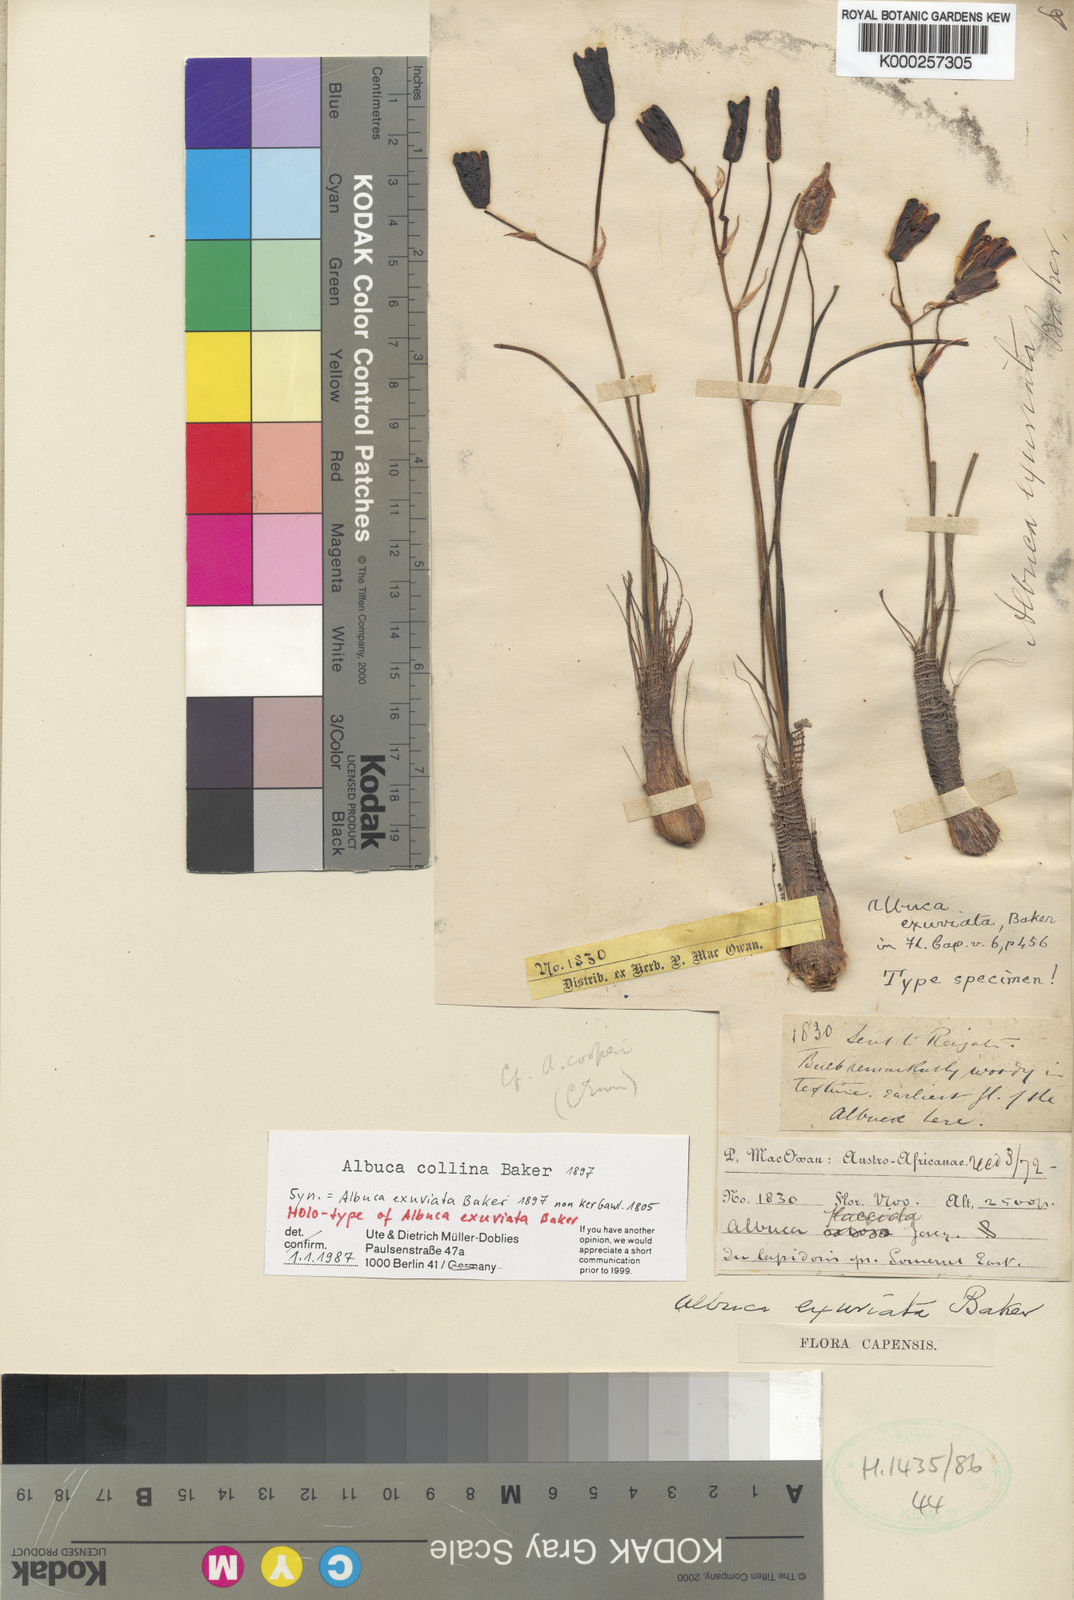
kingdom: Plantae
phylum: Tracheophyta
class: Liliopsida
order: Asparagales
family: Asparagaceae
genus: Albuca
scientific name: Albuca collina
